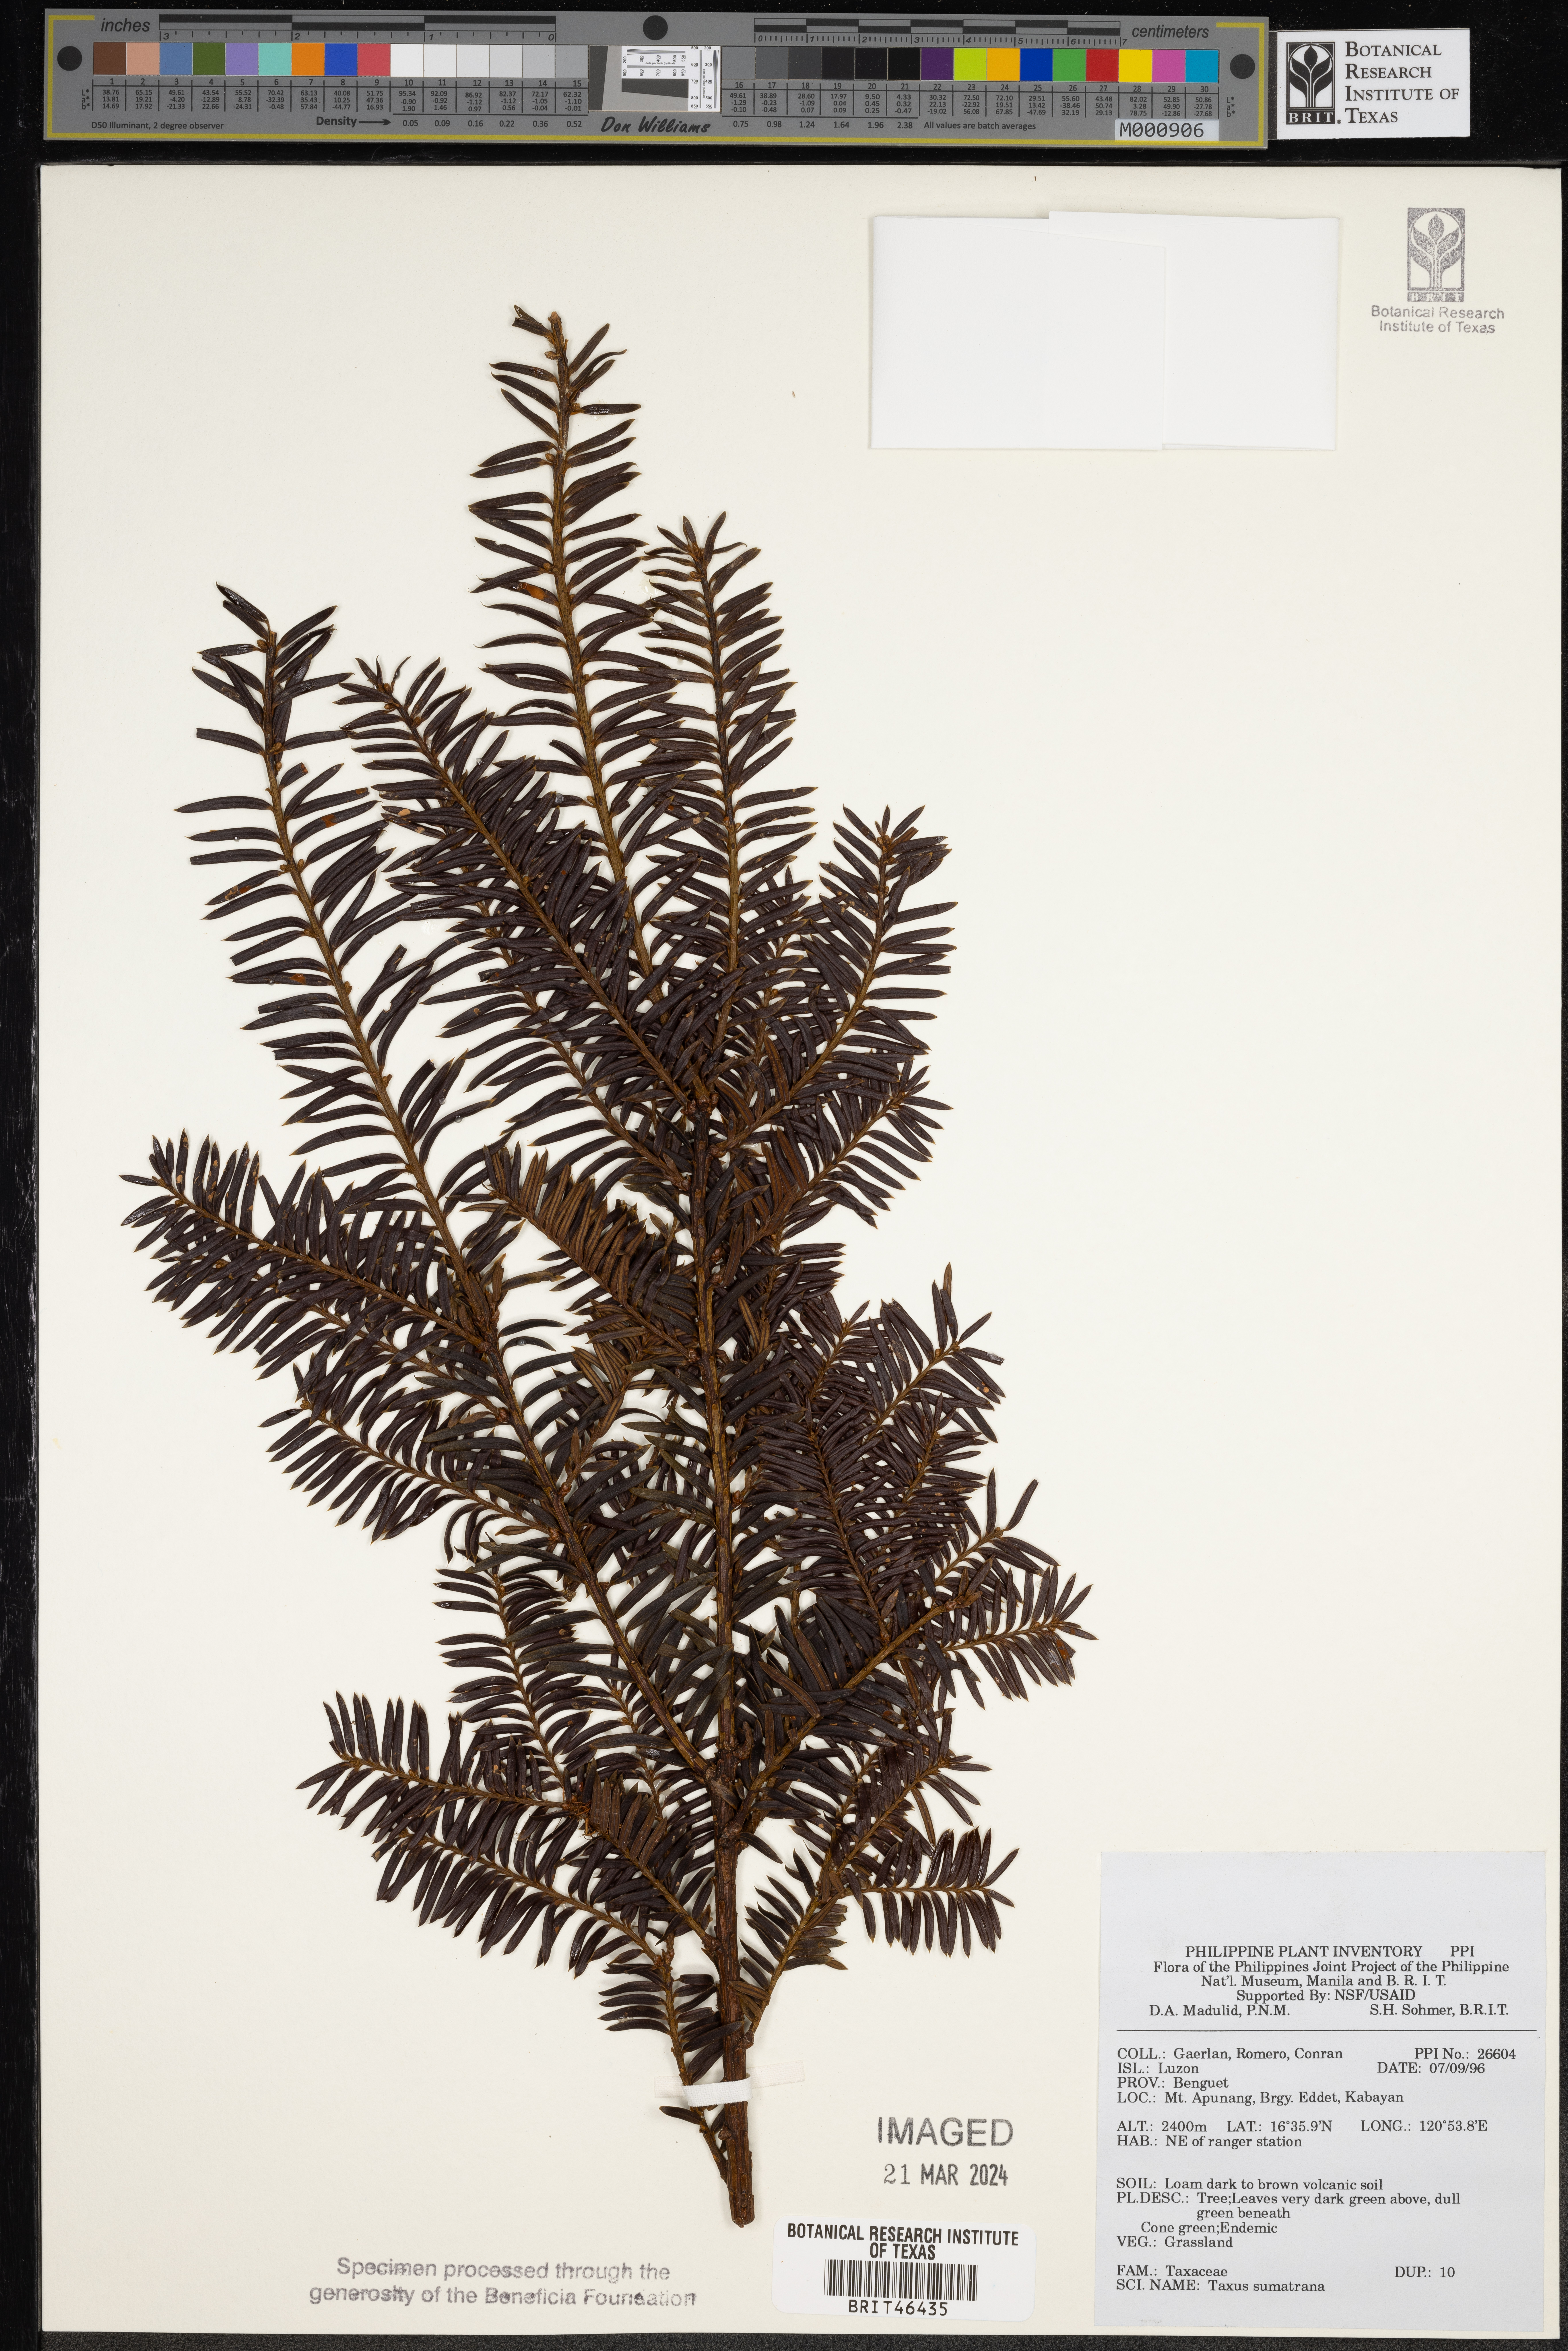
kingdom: Plantae
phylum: Tracheophyta
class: Pinopsida
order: Pinales
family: Taxaceae
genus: Taxus
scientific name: Taxus wallichiana
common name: Himalayan yew
